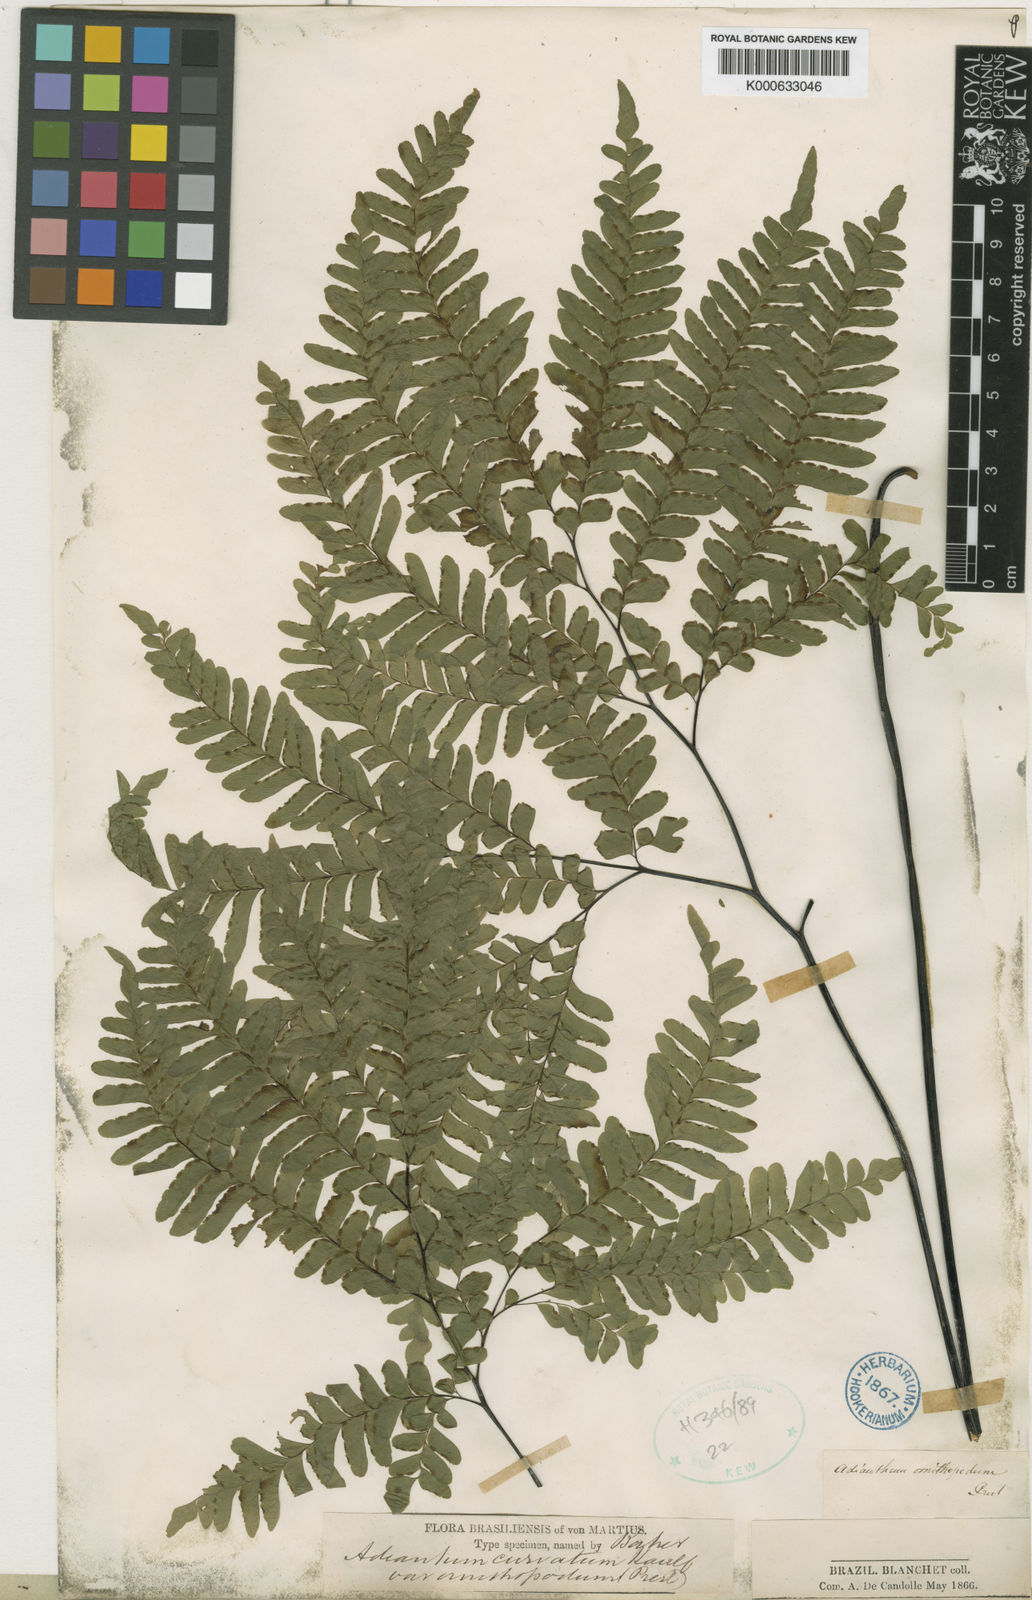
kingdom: Plantae
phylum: Tracheophyta
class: Polypodiopsida
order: Polypodiales
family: Pteridaceae
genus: Adiantum
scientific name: Adiantum tetragonum
